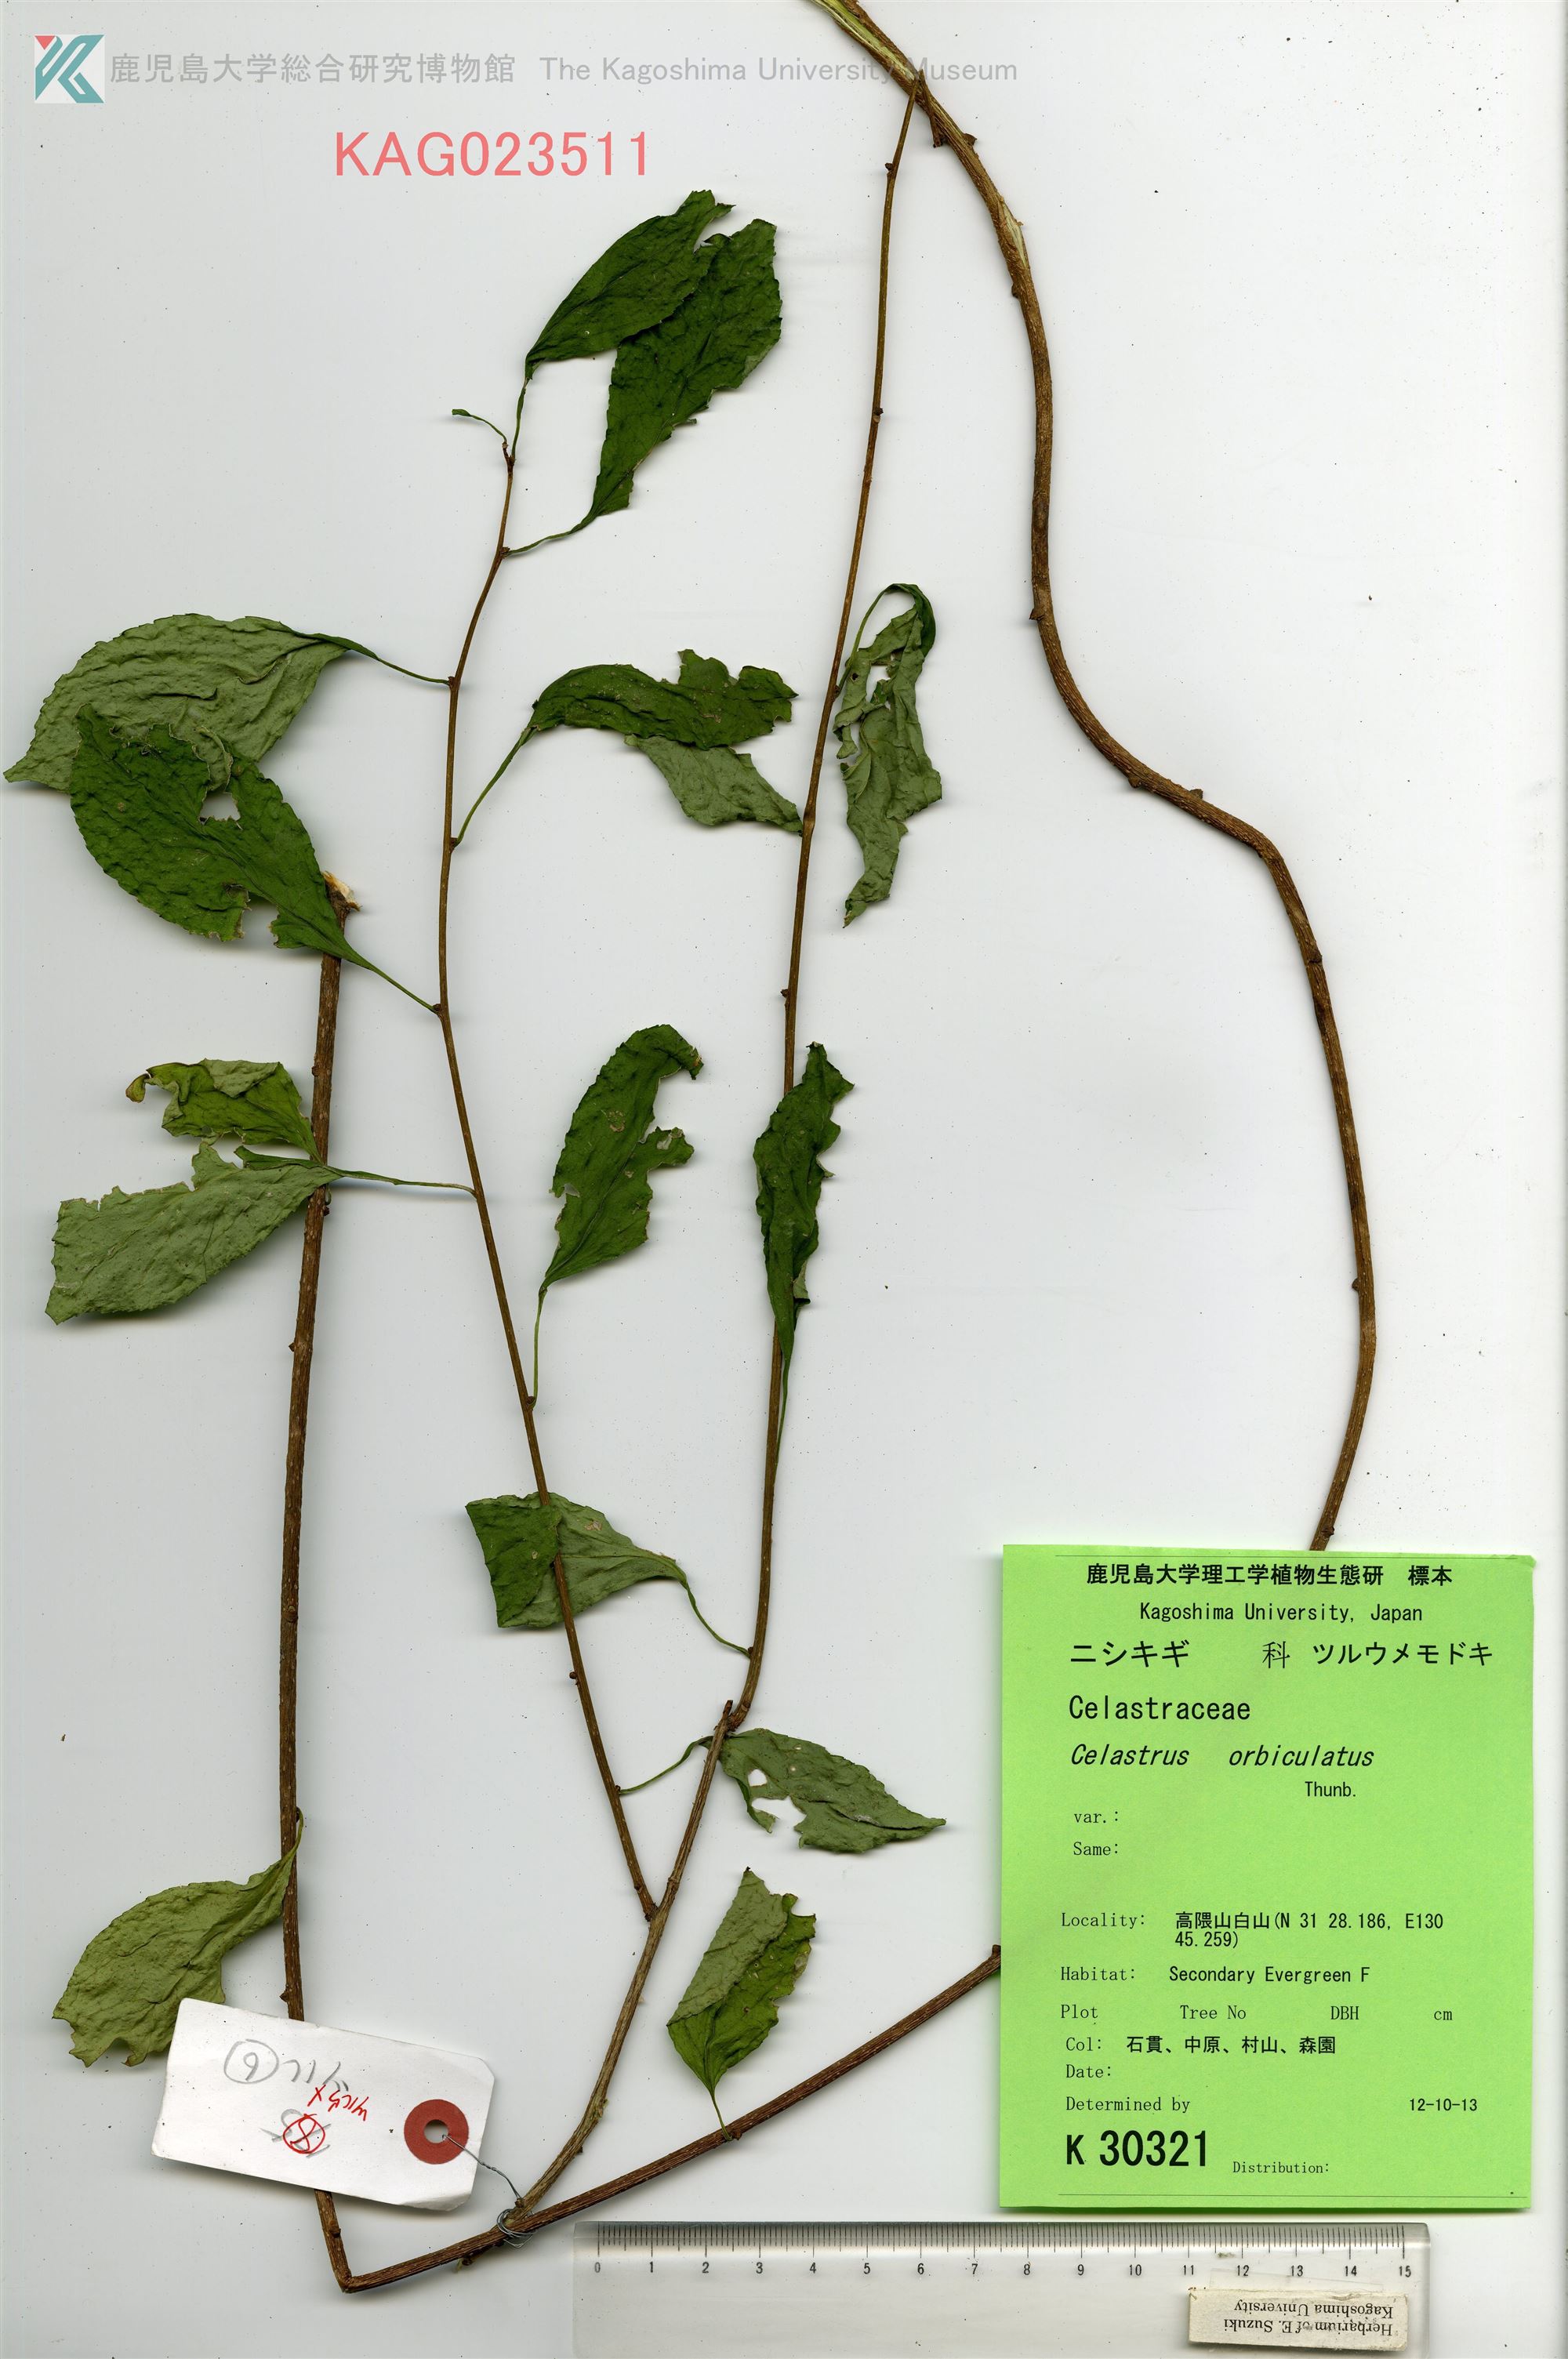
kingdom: Plantae
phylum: Tracheophyta
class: Magnoliopsida
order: Celastrales
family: Celastraceae
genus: Celastrus
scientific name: Celastrus orbiculatus
